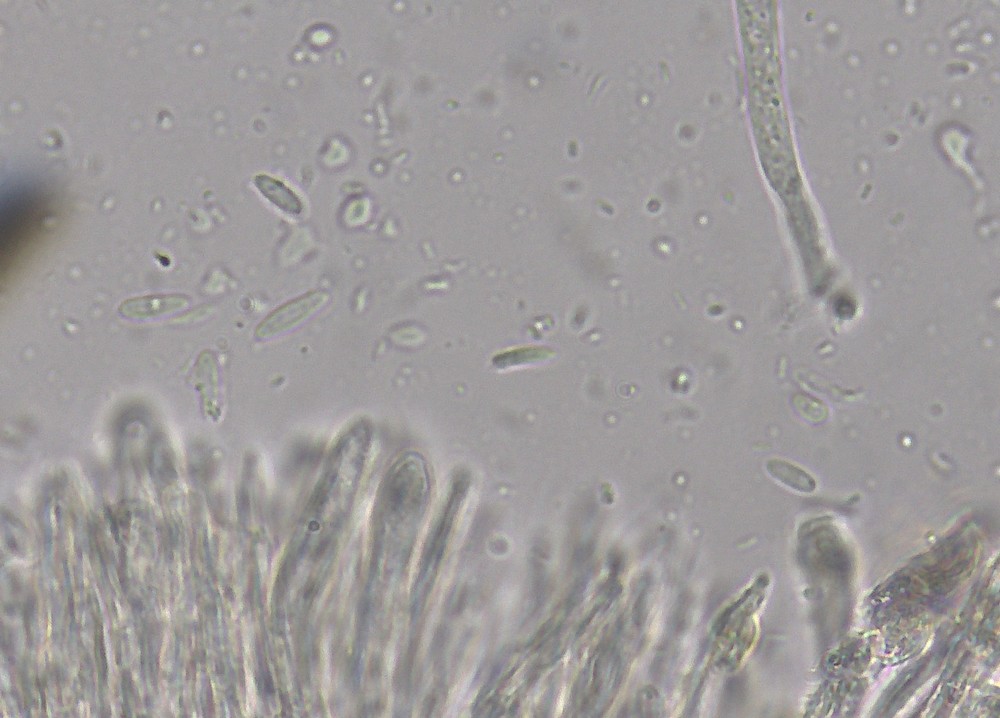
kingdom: Fungi
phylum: Ascomycota
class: Leotiomycetes
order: Helotiales
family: Lachnaceae
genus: Lachnellula
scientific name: Lachnellula pulverulenta
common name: fyrrenåls-frynseskive
